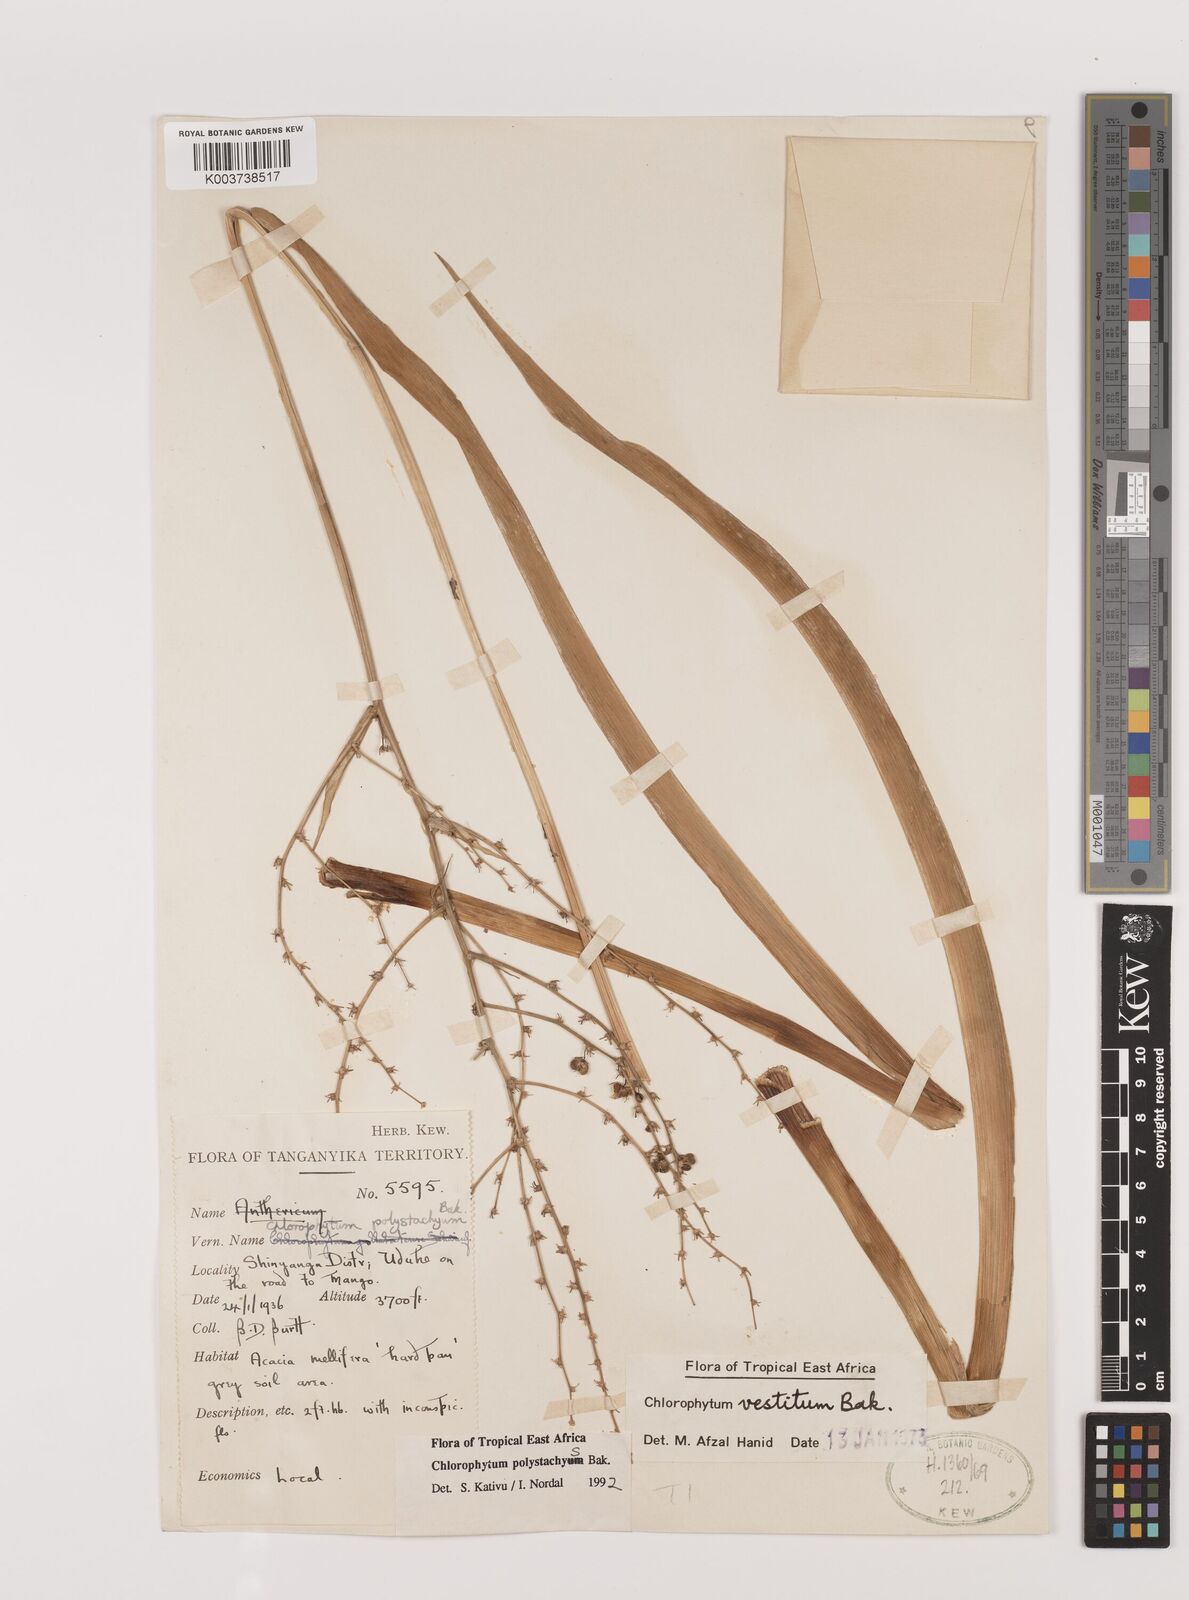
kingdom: Plantae
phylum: Tracheophyta
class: Liliopsida
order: Asparagales
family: Asparagaceae
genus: Chlorophytum
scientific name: Chlorophytum polystachys
